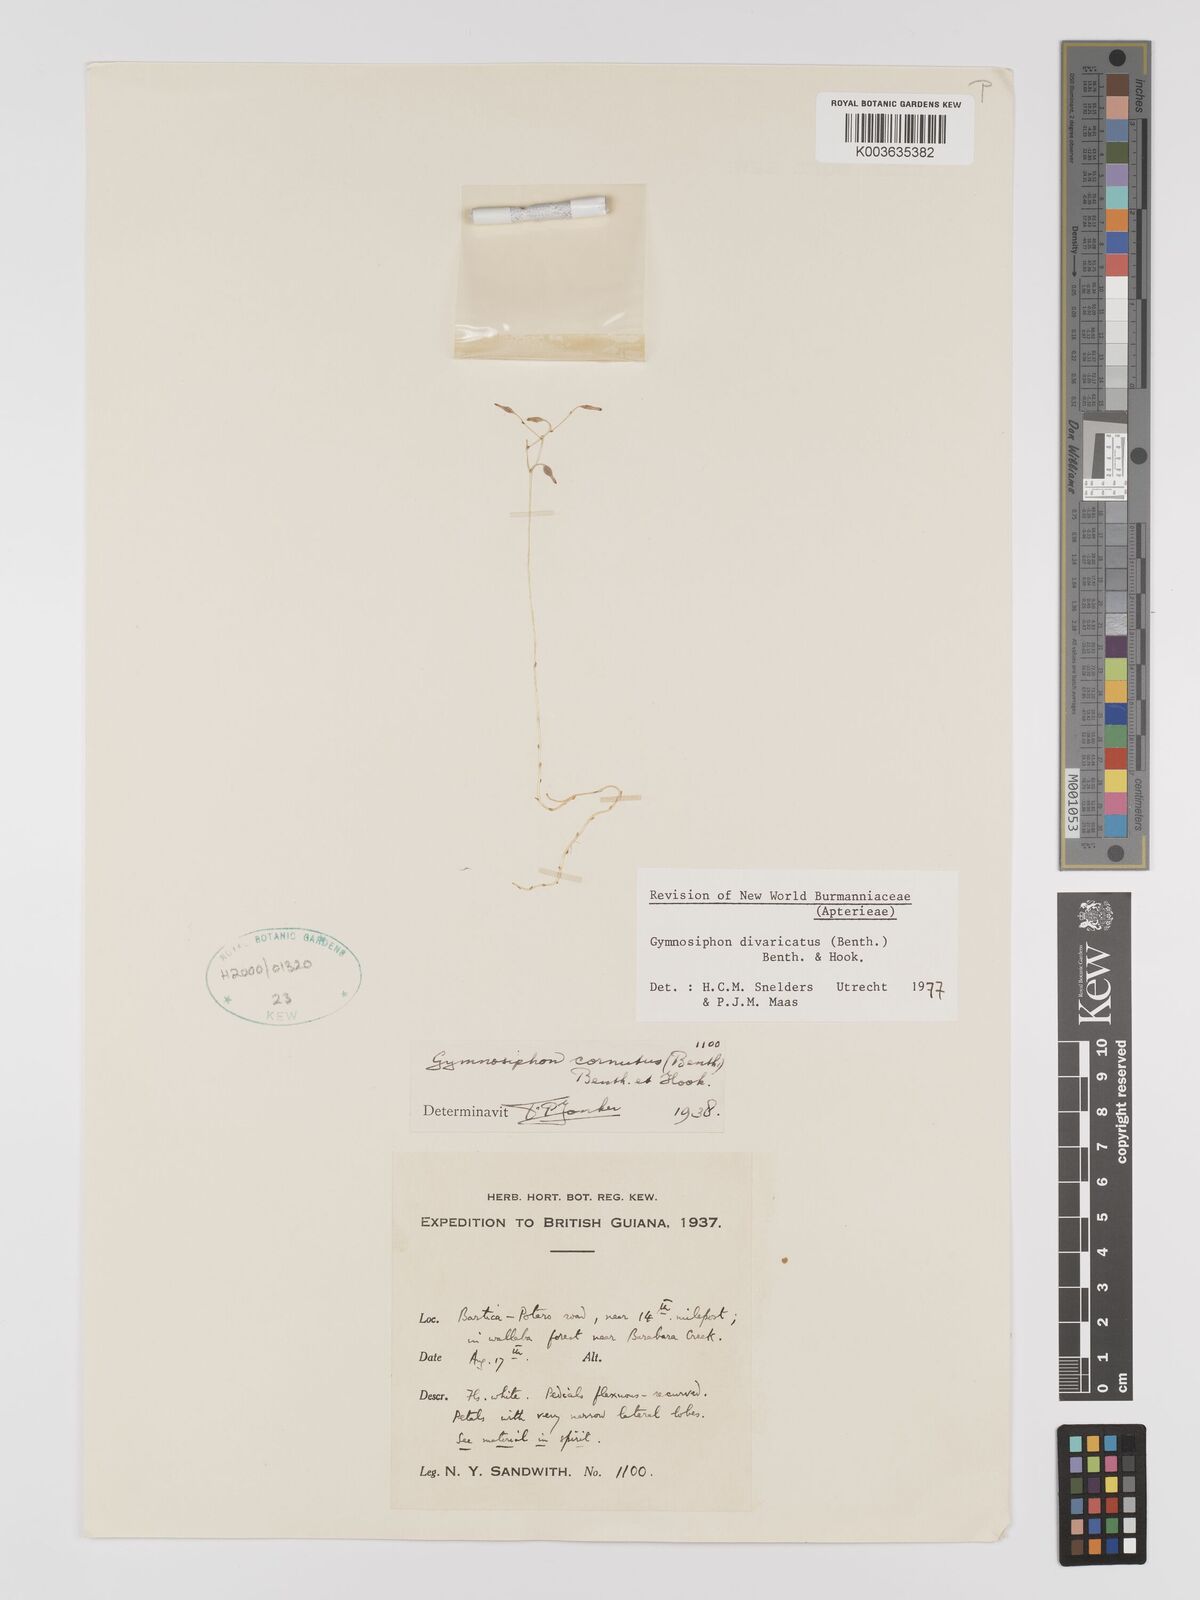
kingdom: Plantae
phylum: Tracheophyta
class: Liliopsida
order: Dioscoreales
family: Burmanniaceae
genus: Gymnosiphon
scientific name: Gymnosiphon divaricatus
